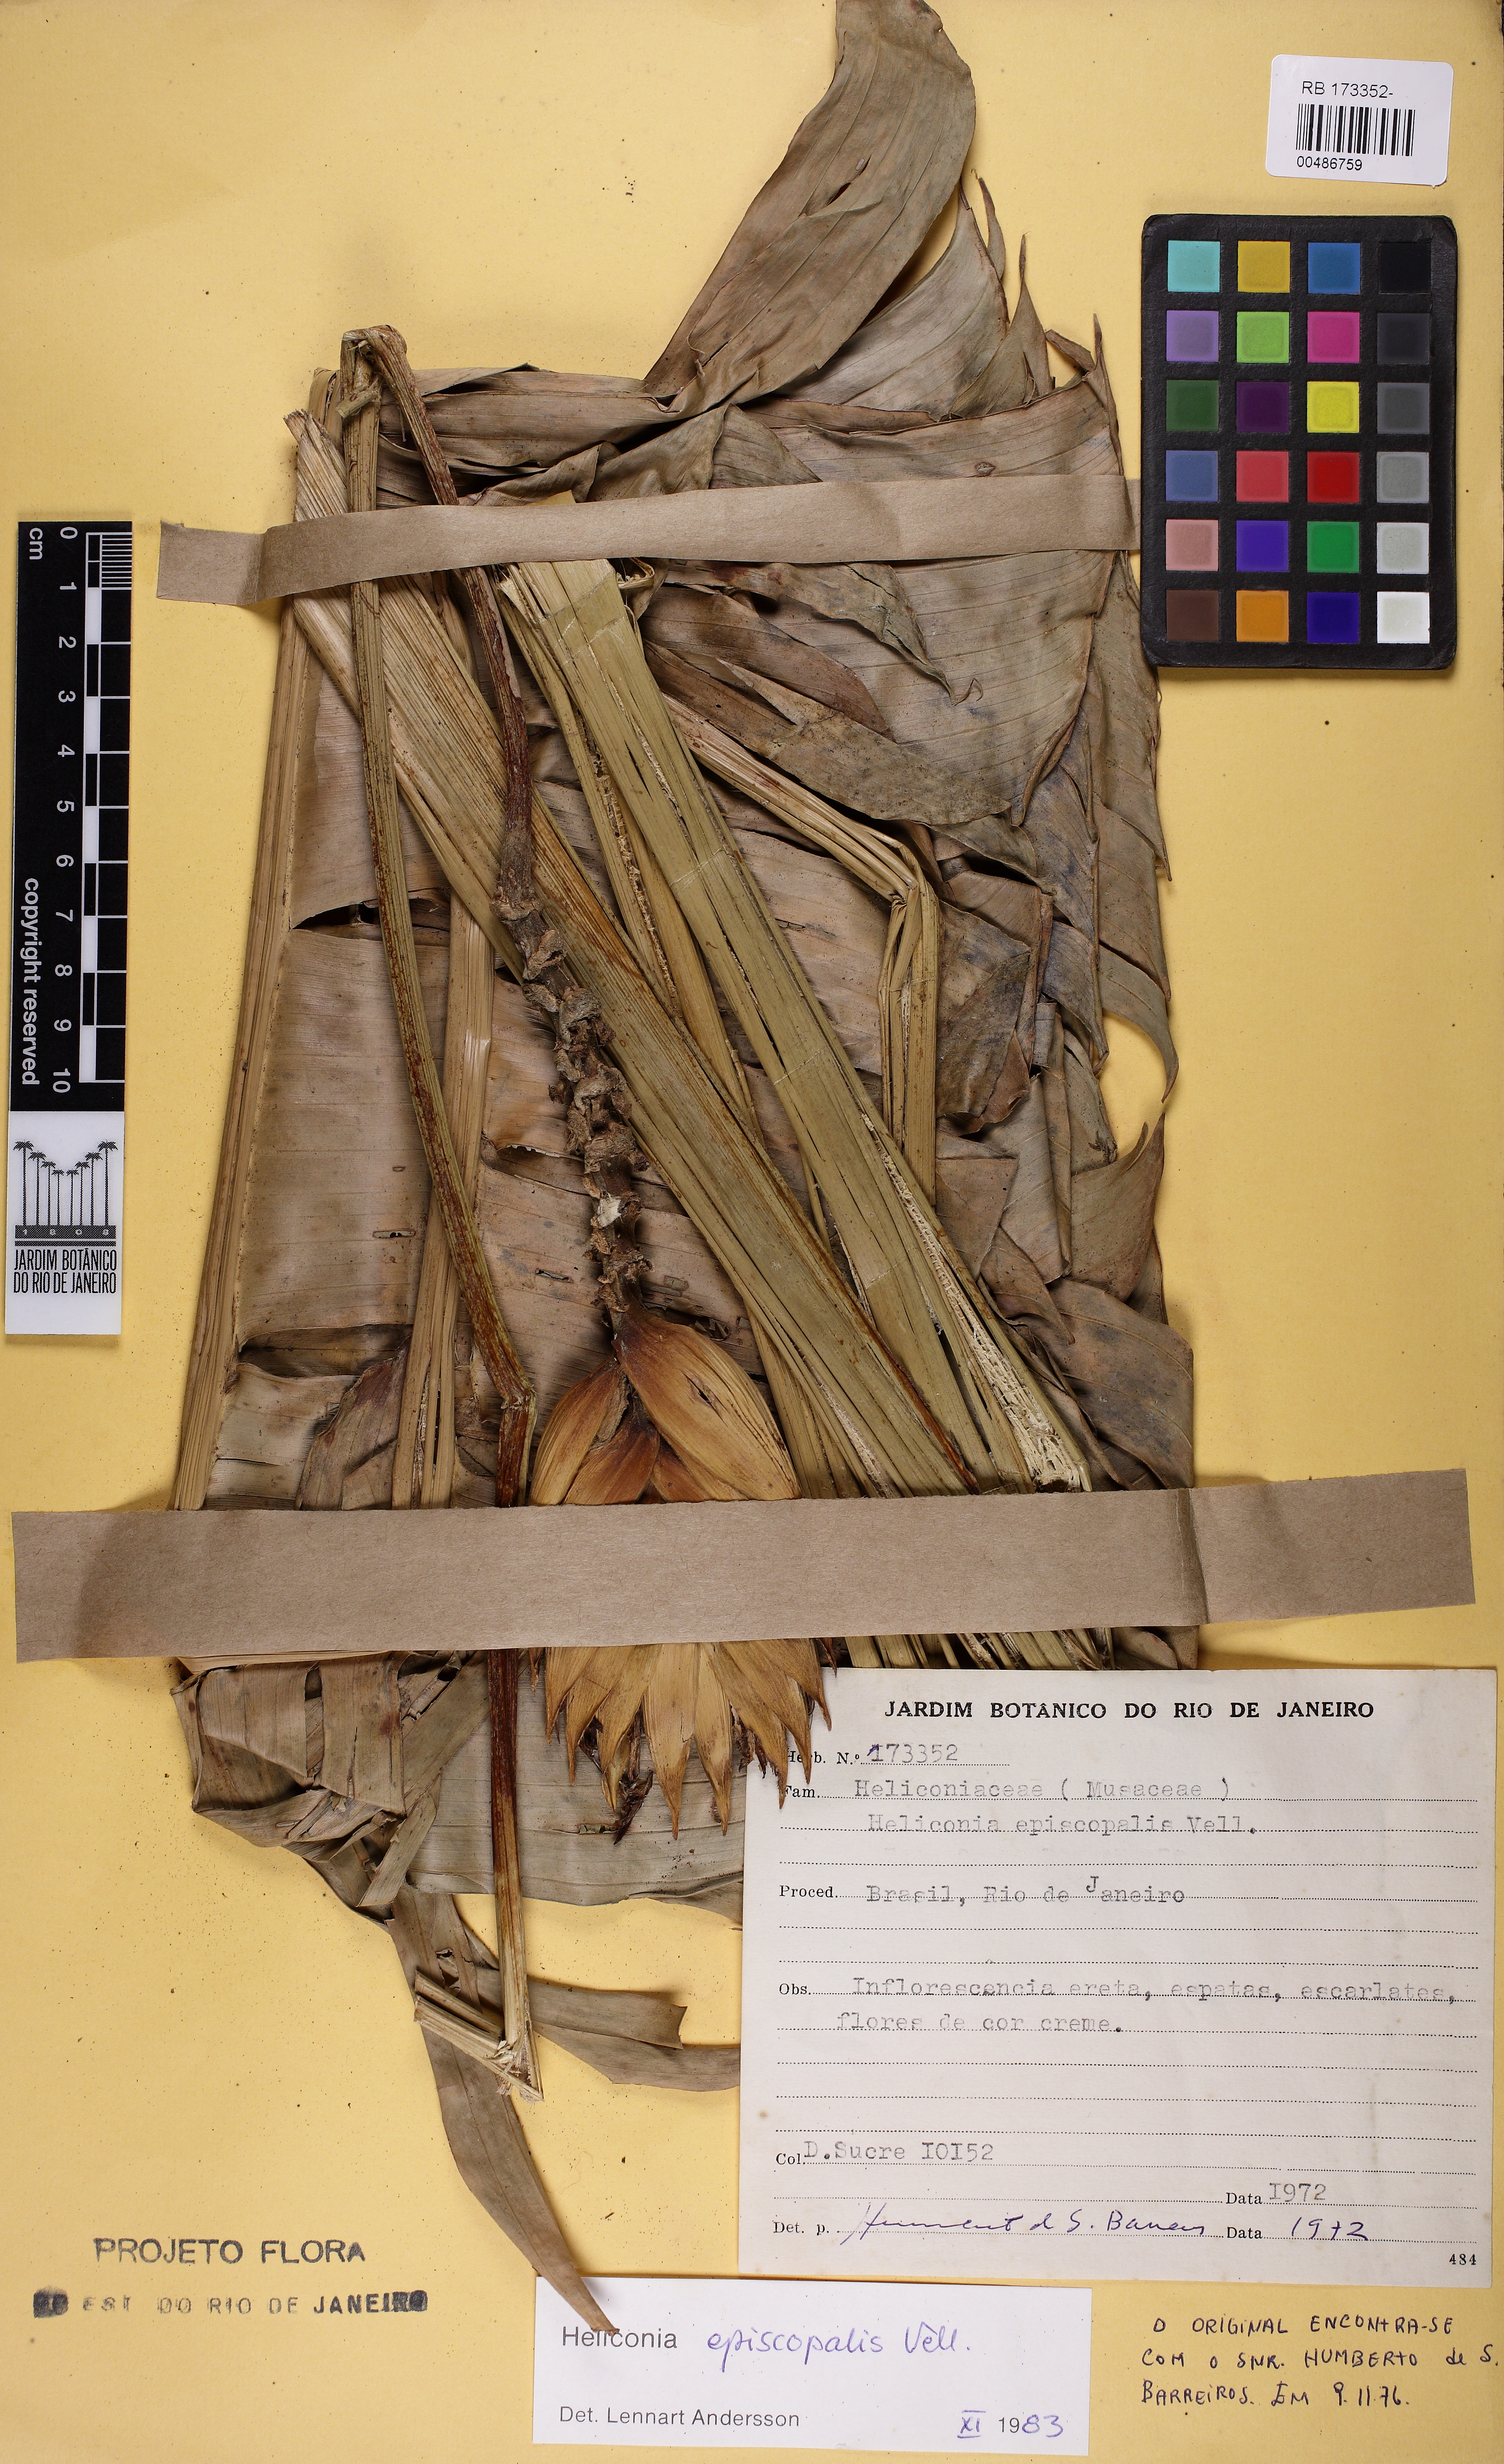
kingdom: Plantae
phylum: Tracheophyta
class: Liliopsida
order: Zingiberales
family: Heliconiaceae
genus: Heliconia
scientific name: Heliconia episcopalis
